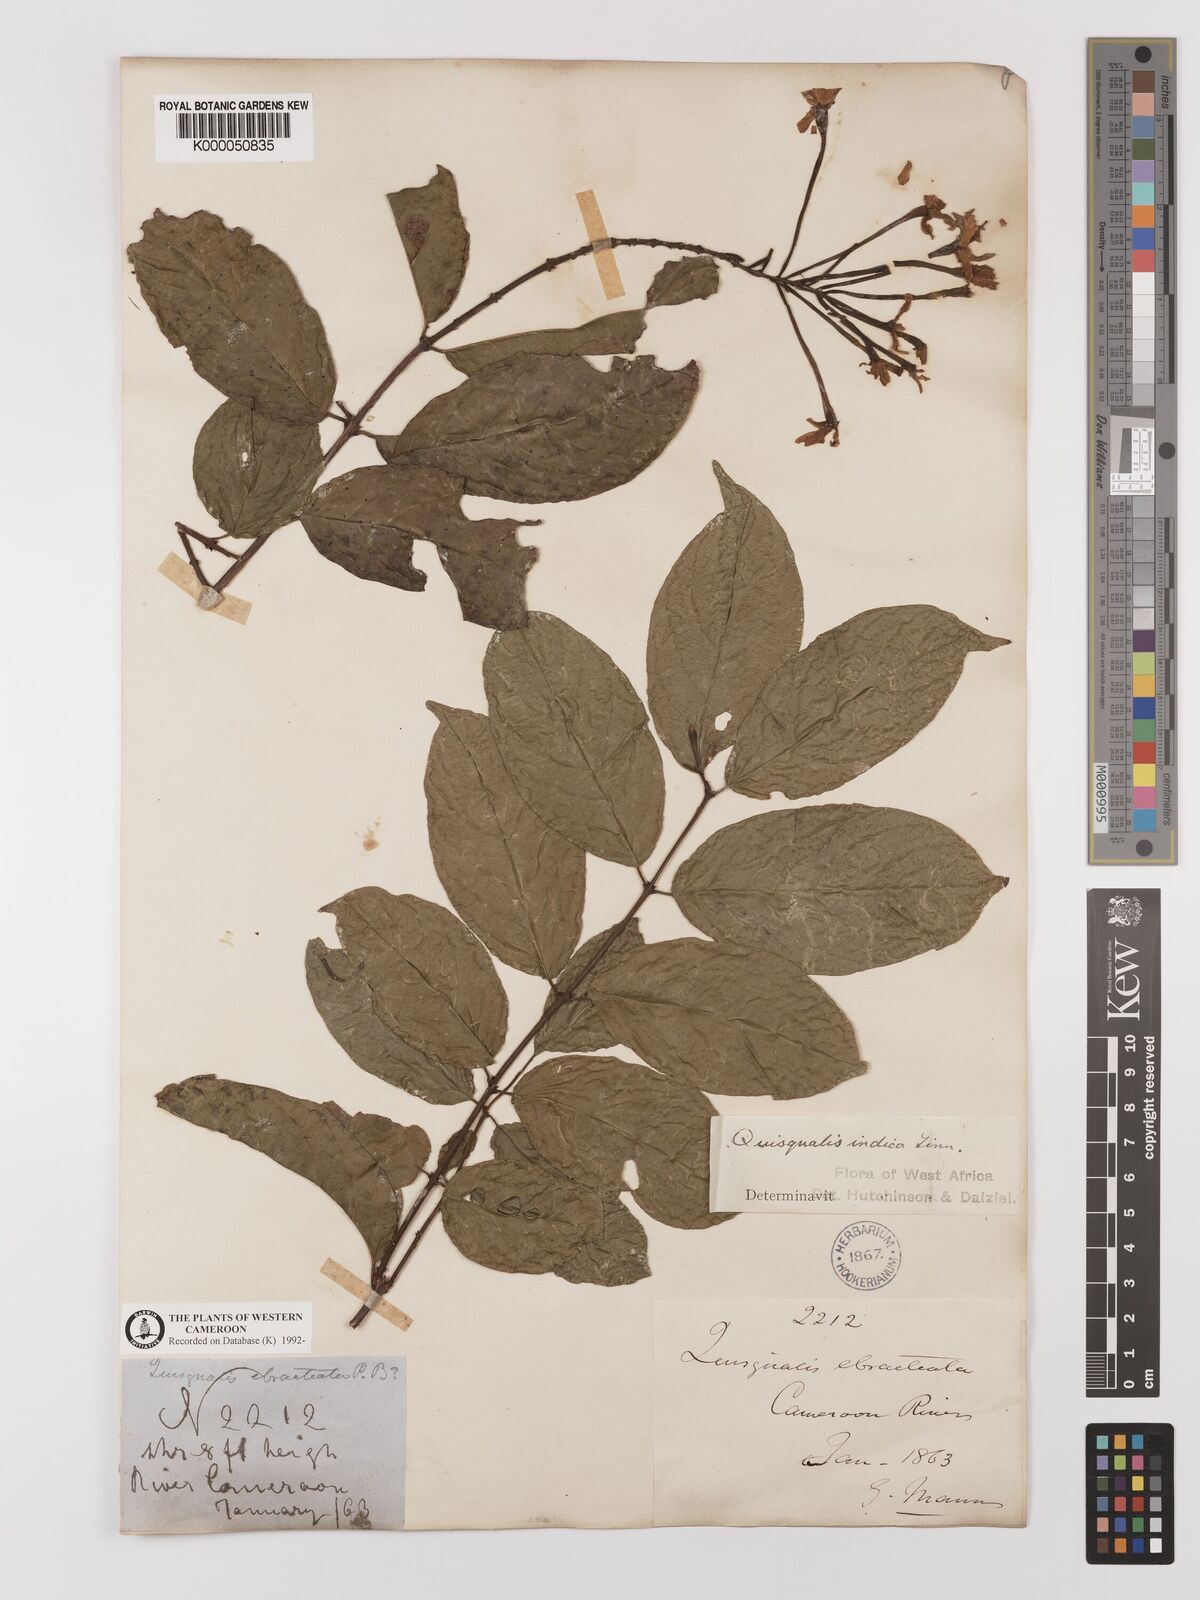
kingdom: Plantae
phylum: Tracheophyta
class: Magnoliopsida
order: Myrtales
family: Combretaceae
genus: Combretum
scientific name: Combretum indicum
